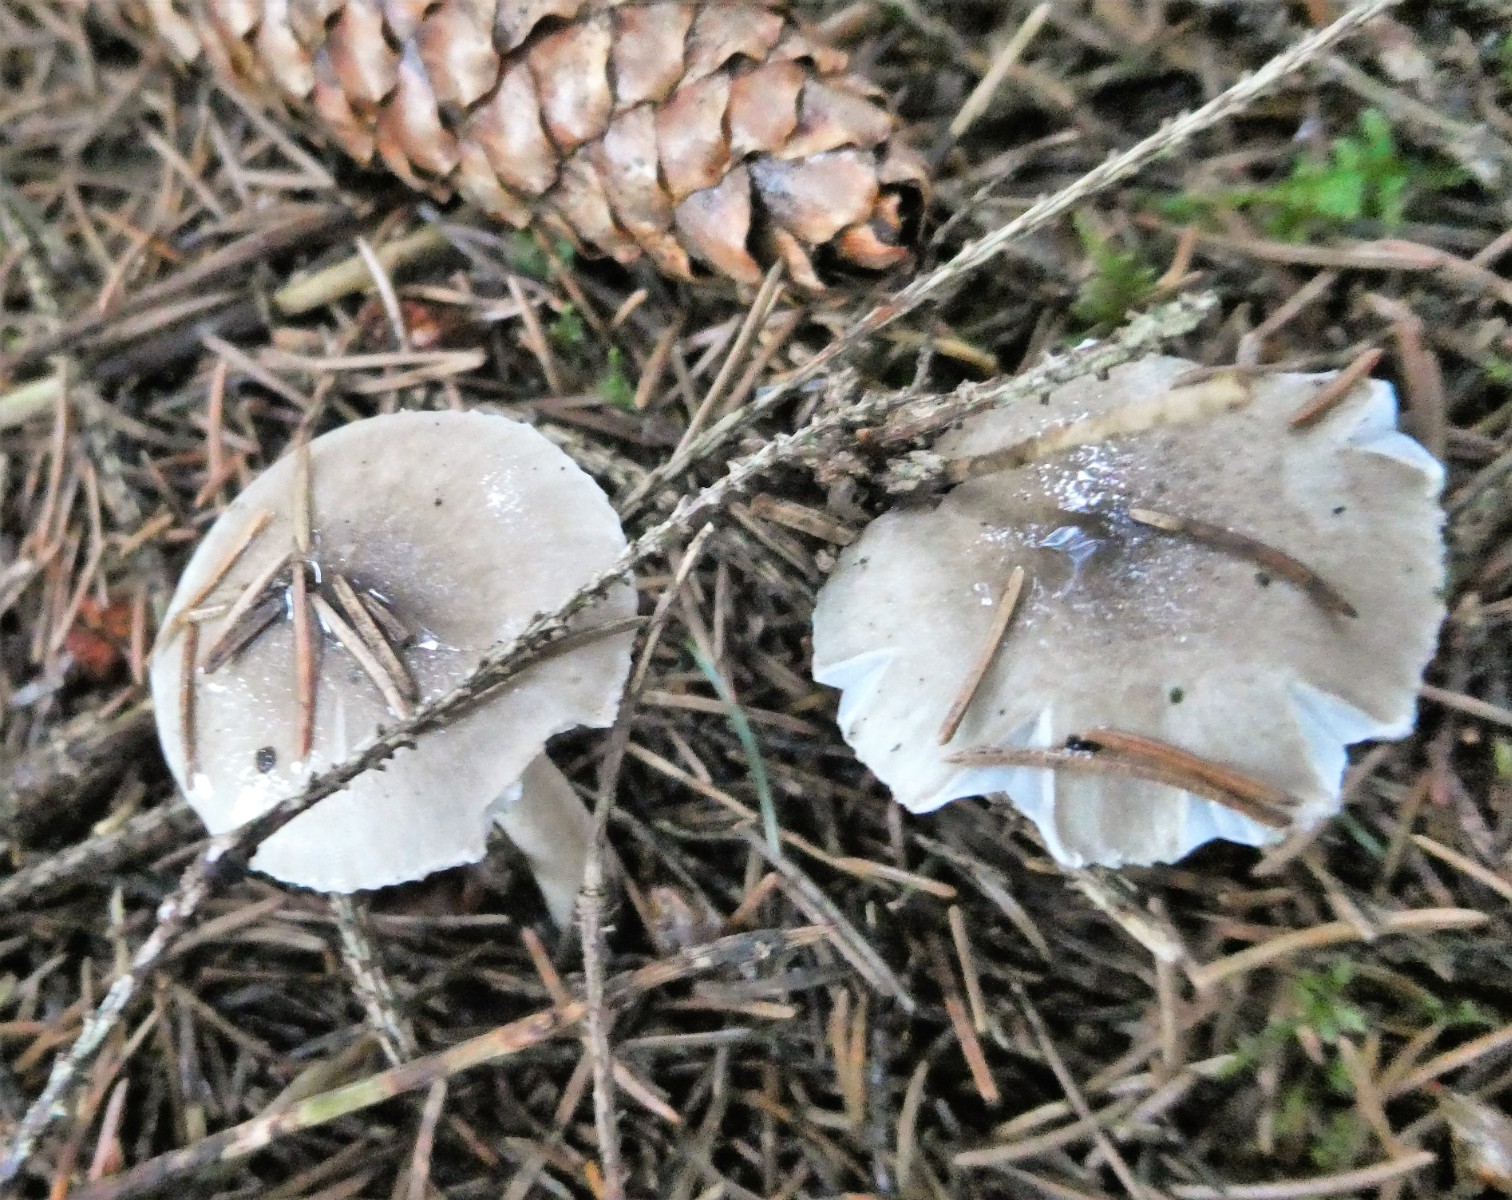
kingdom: Fungi
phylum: Basidiomycota
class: Agaricomycetes
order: Agaricales
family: Hygrophoraceae
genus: Hygrophorus
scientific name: Hygrophorus pustulatus
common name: mørkprikket sneglehat
